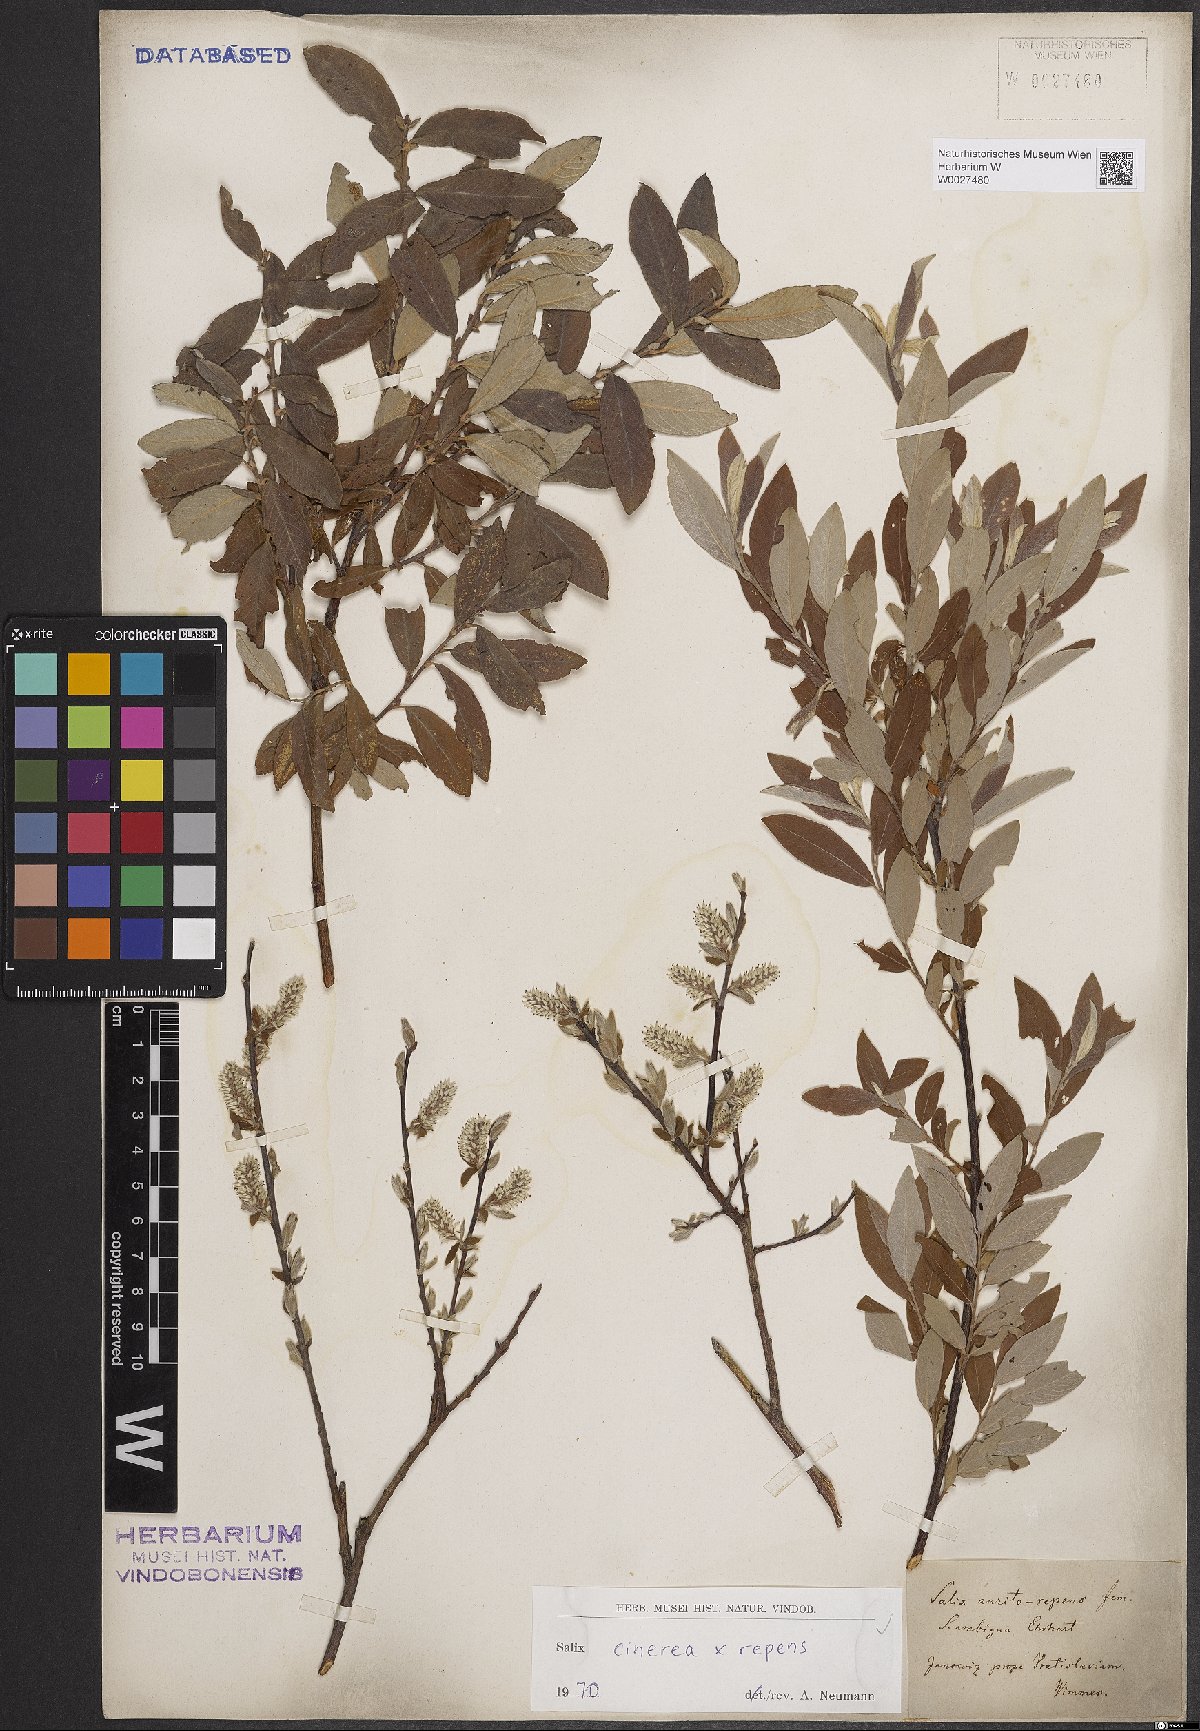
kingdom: Plantae
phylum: Tracheophyta
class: Magnoliopsida
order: Malpighiales
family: Salicaceae
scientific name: Salicaceae
